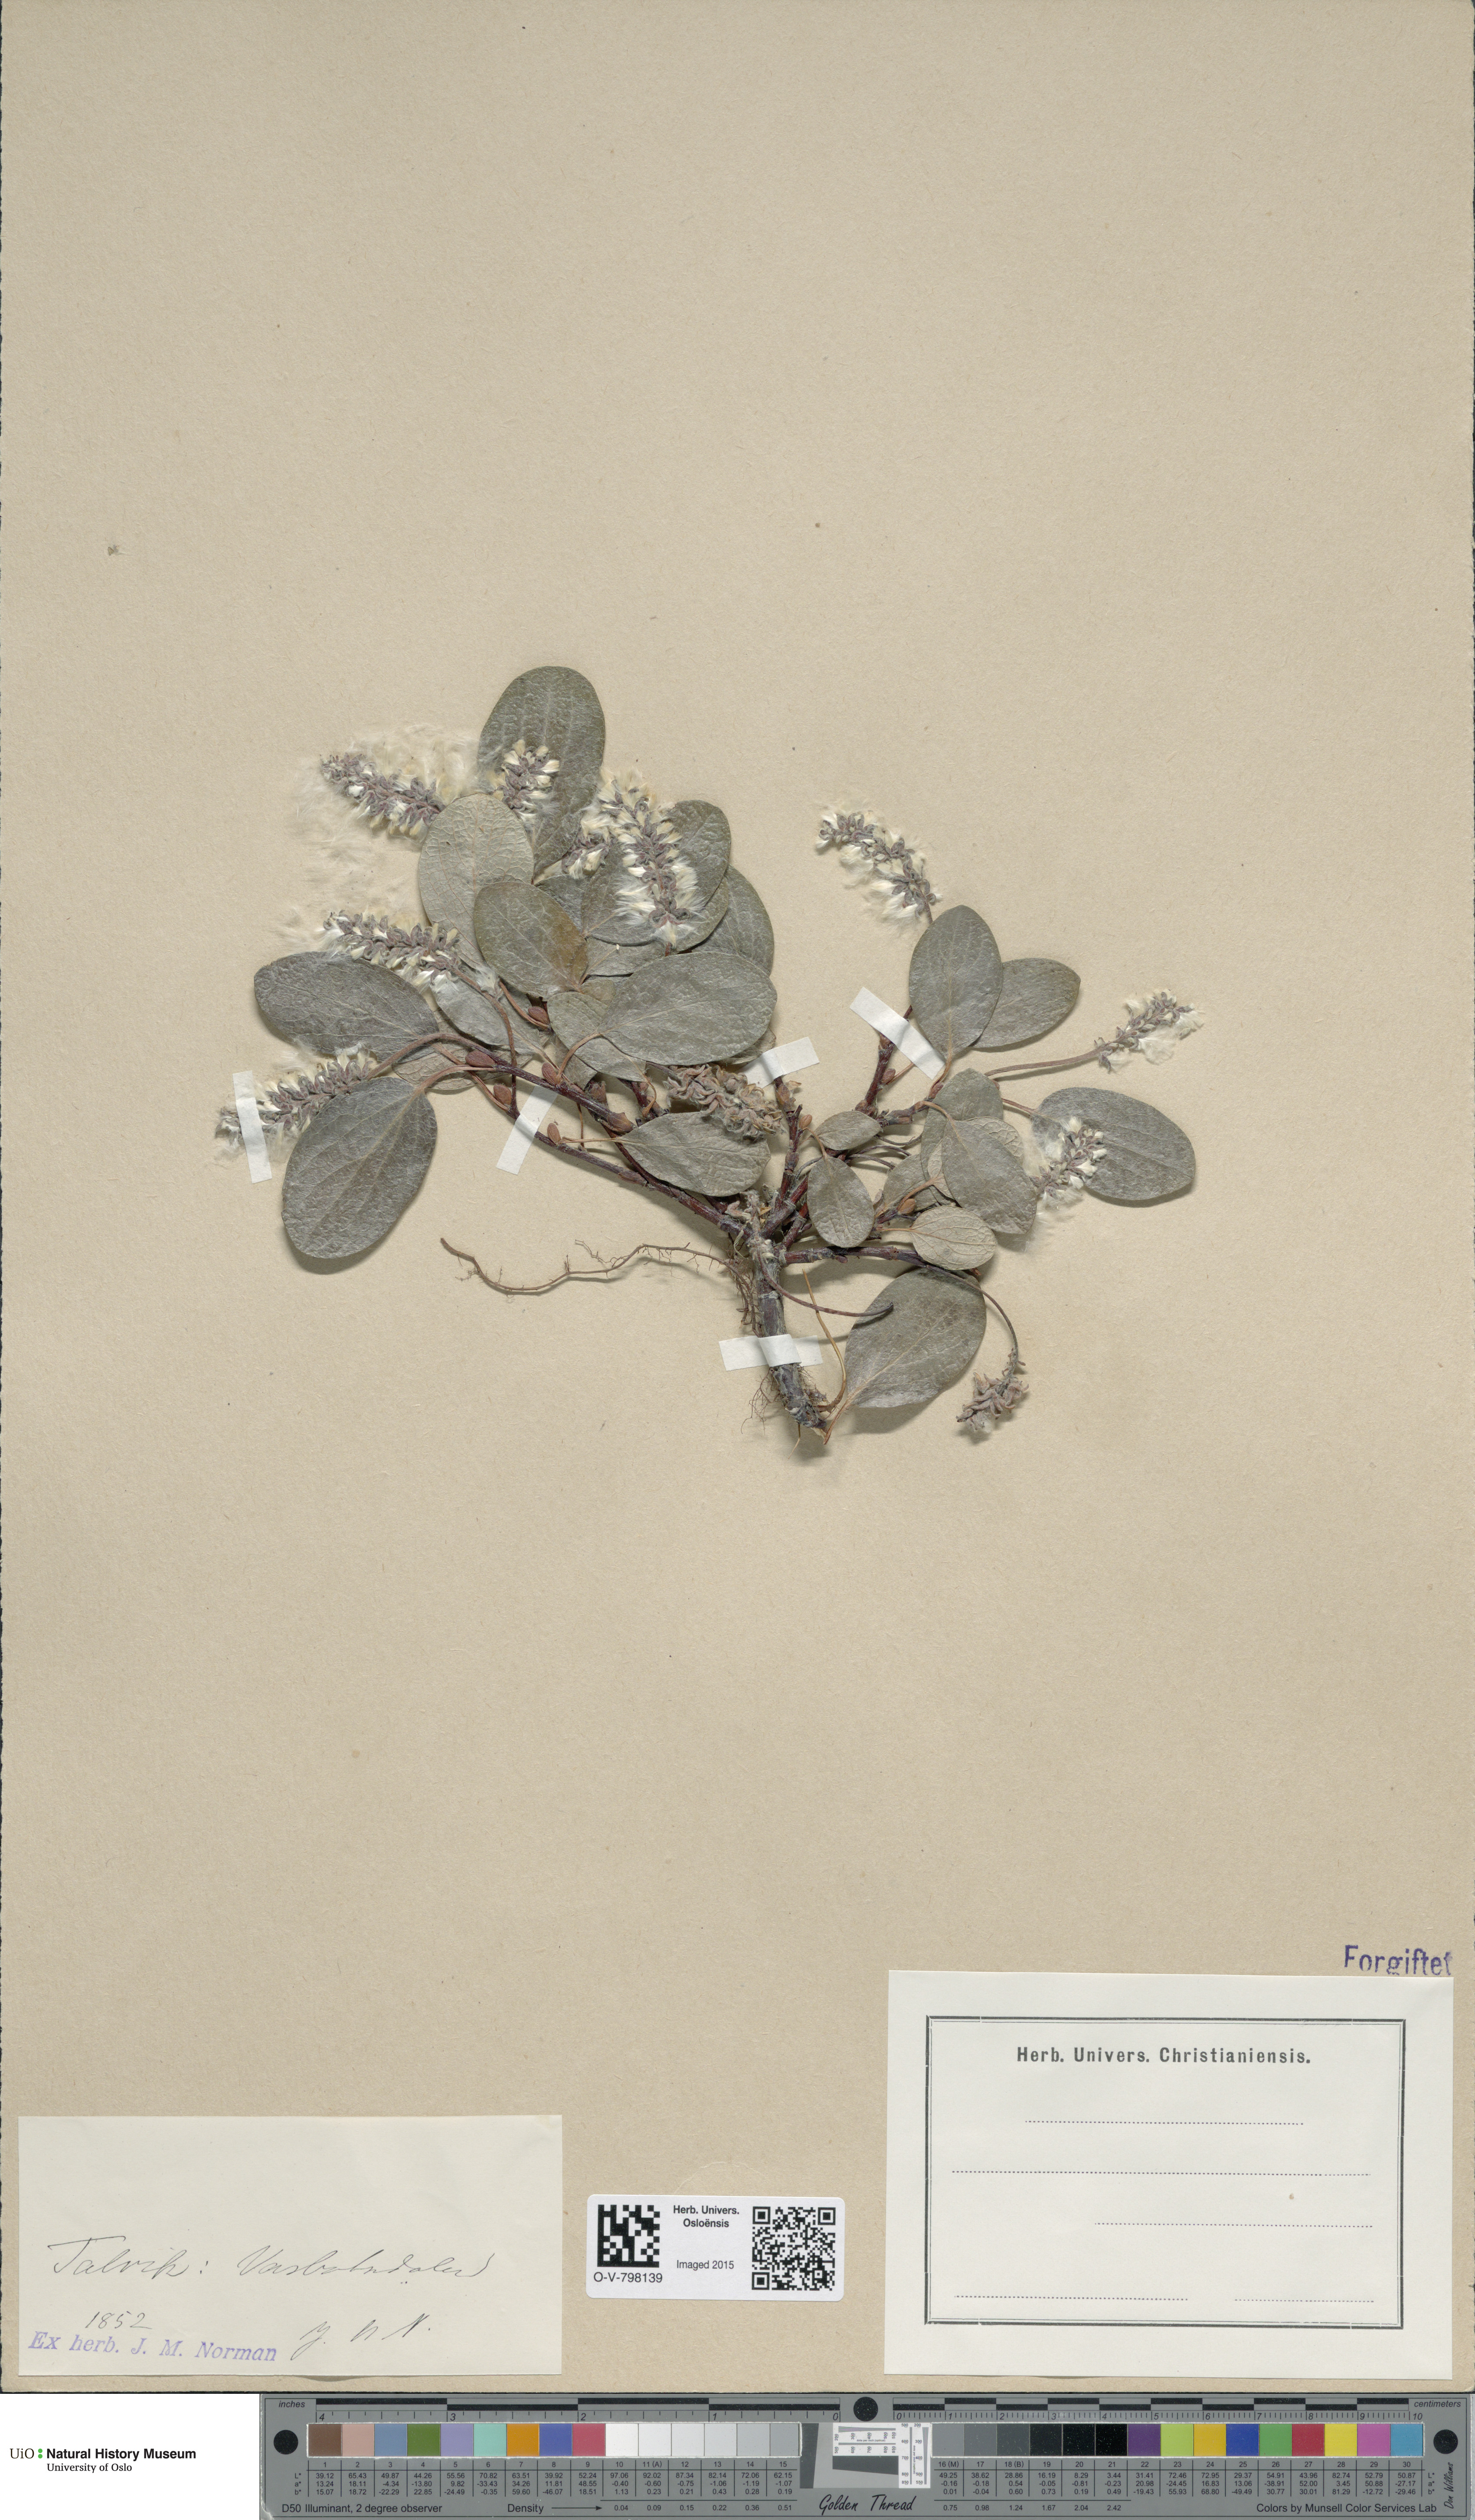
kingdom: Plantae
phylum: Tracheophyta
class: Magnoliopsida
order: Malpighiales
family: Salicaceae
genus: Salix
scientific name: Salix reticulata
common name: Net-leaved willow
